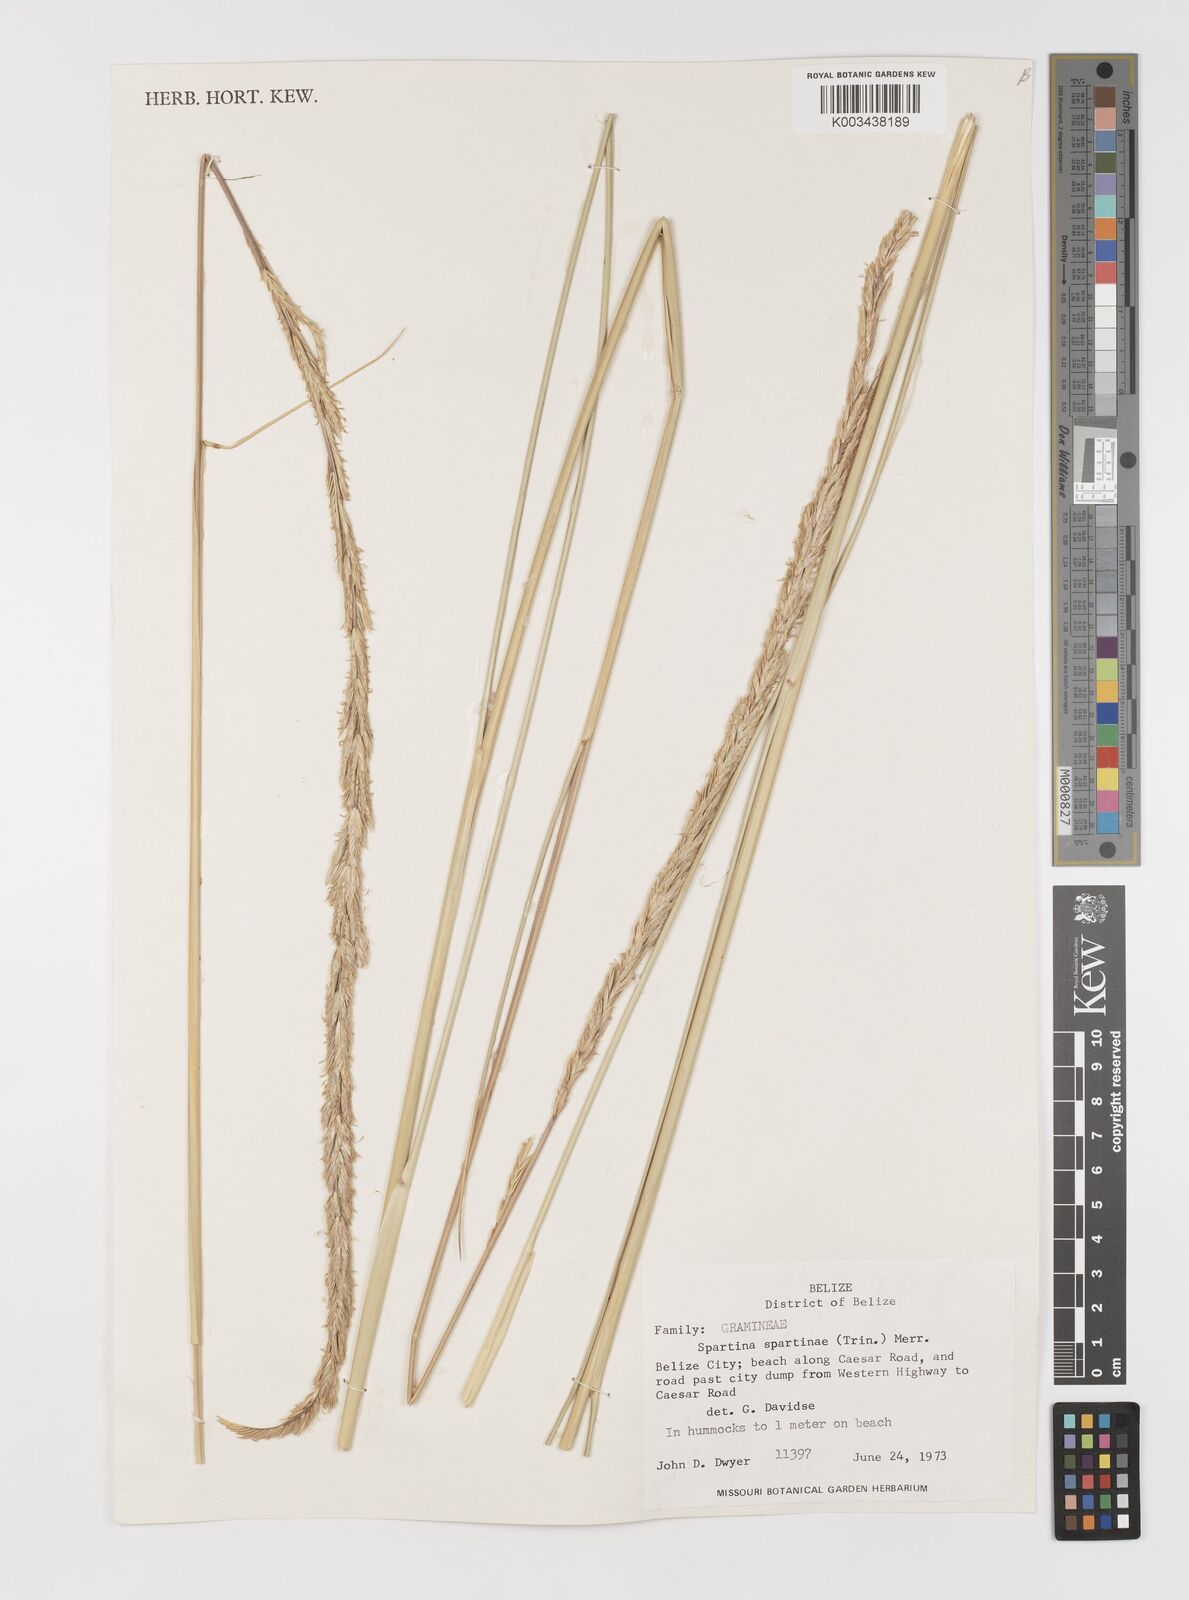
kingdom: Plantae
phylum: Tracheophyta
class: Liliopsida
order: Poales
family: Poaceae
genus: Sporobolus
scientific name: Sporobolus spartinae
